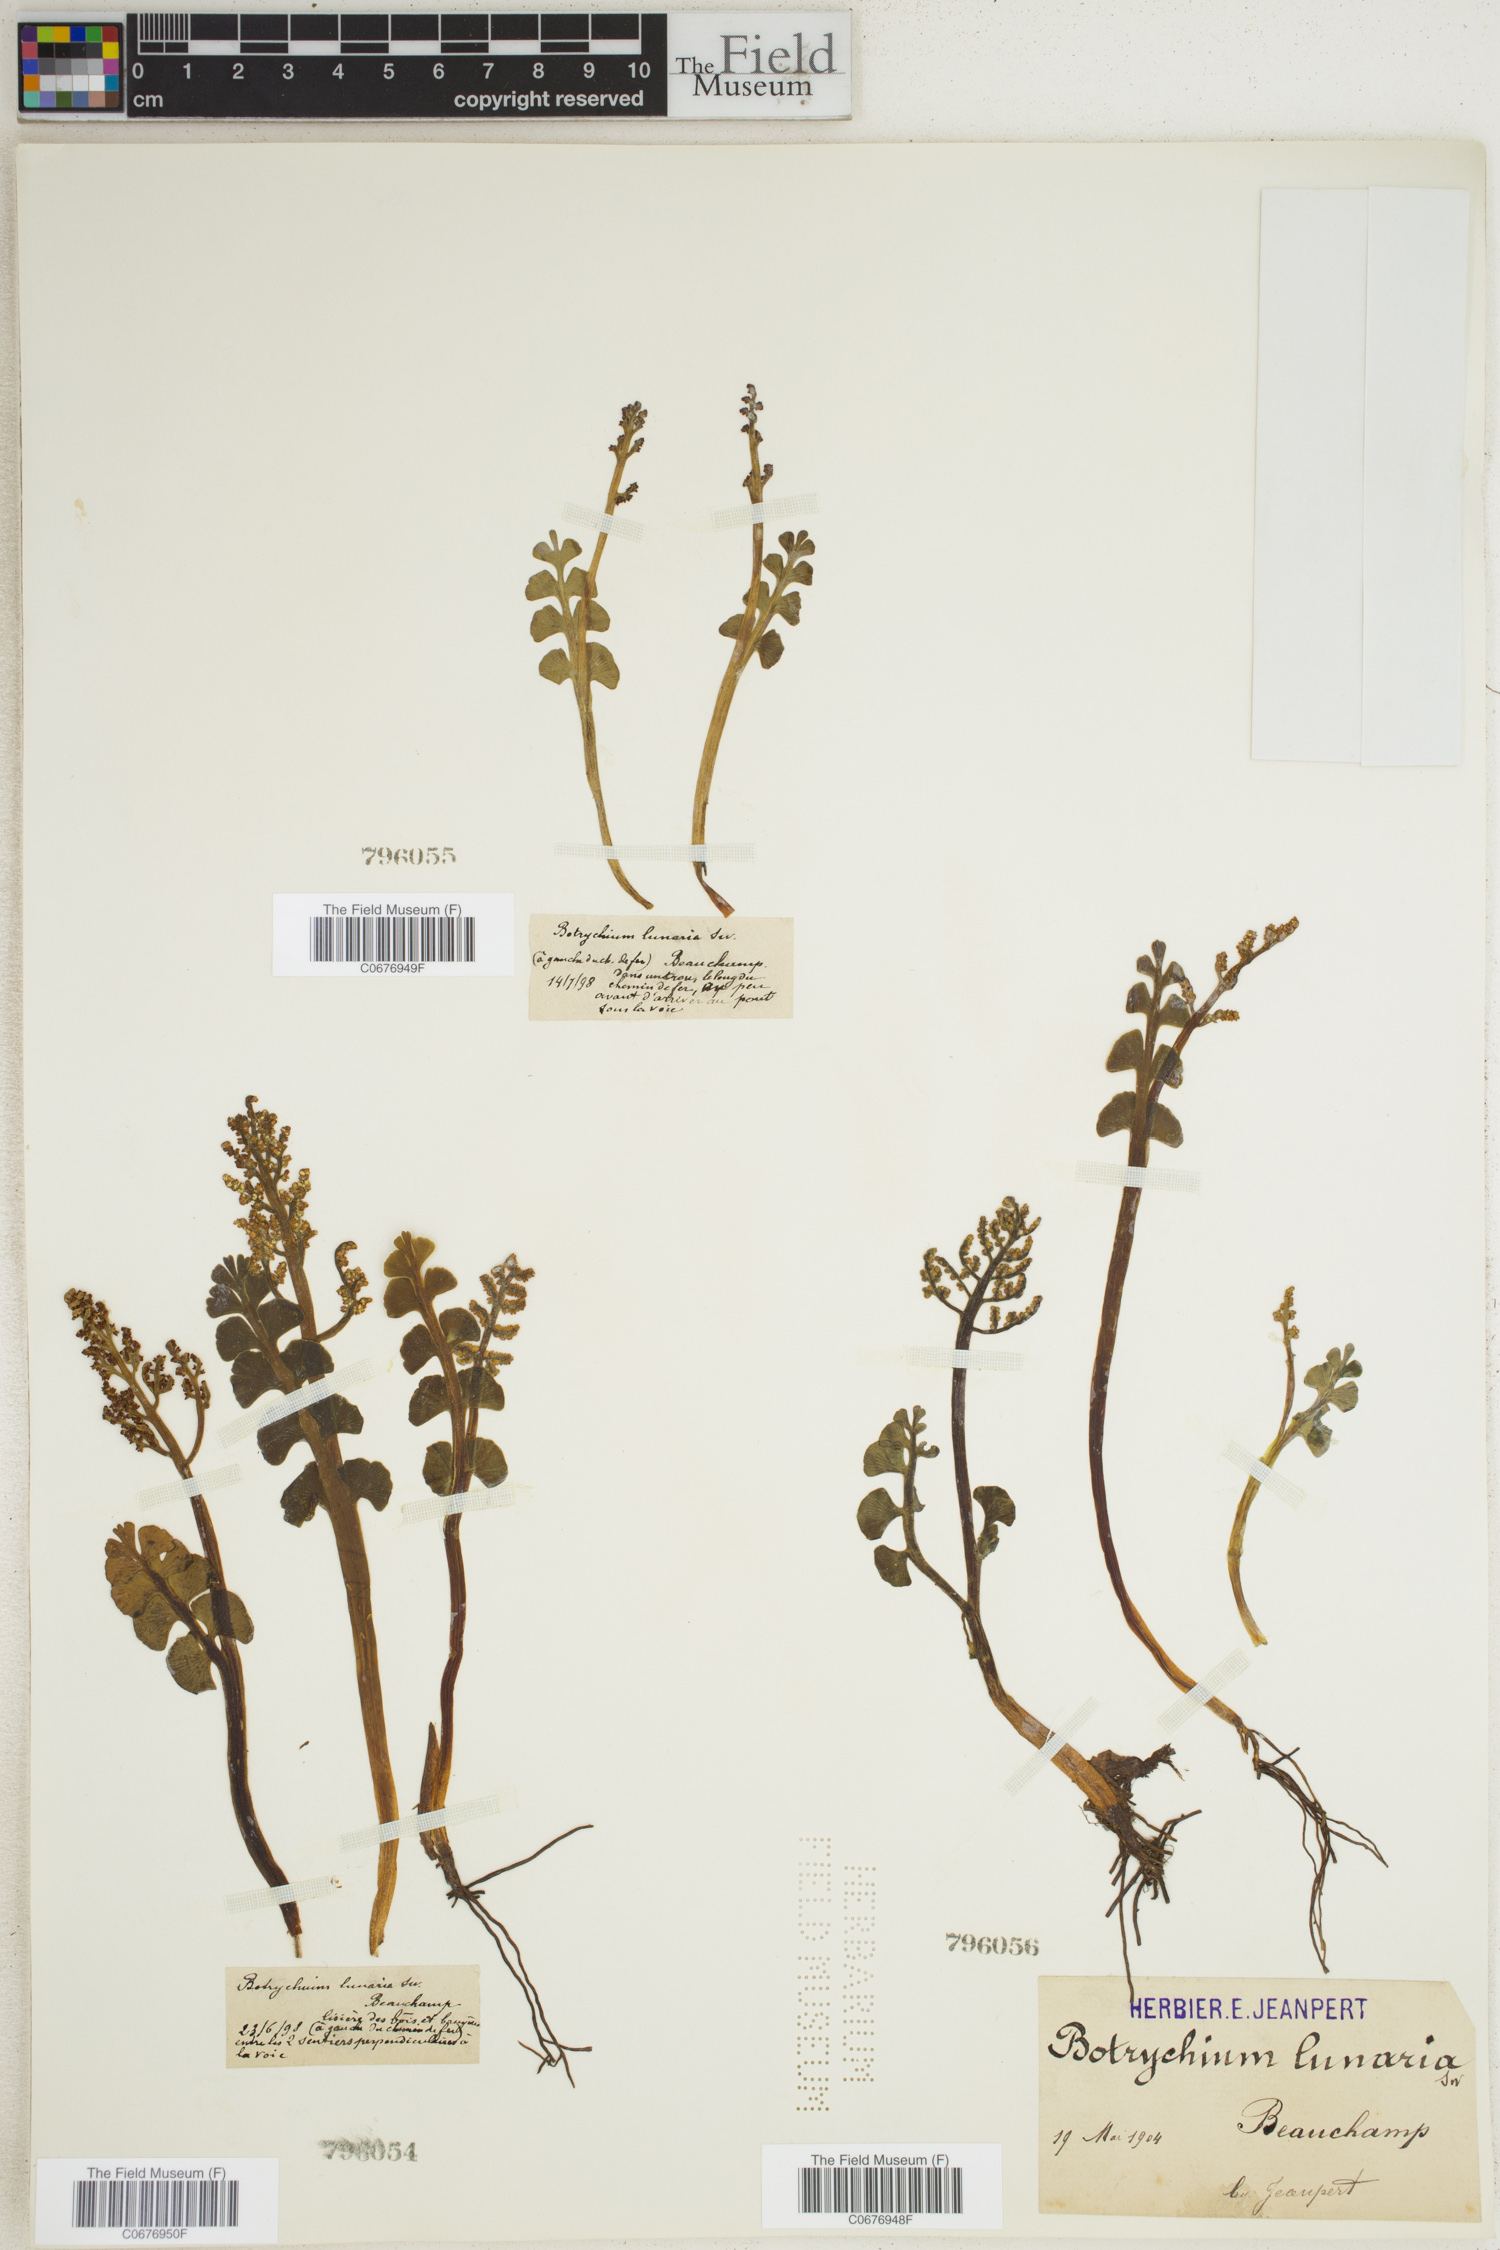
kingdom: Plantae
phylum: Tracheophyta
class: Polypodiopsida
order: Ophioglossales
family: Ophioglossaceae
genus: Botrychium
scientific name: Botrychium lunaria
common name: Moonwort
